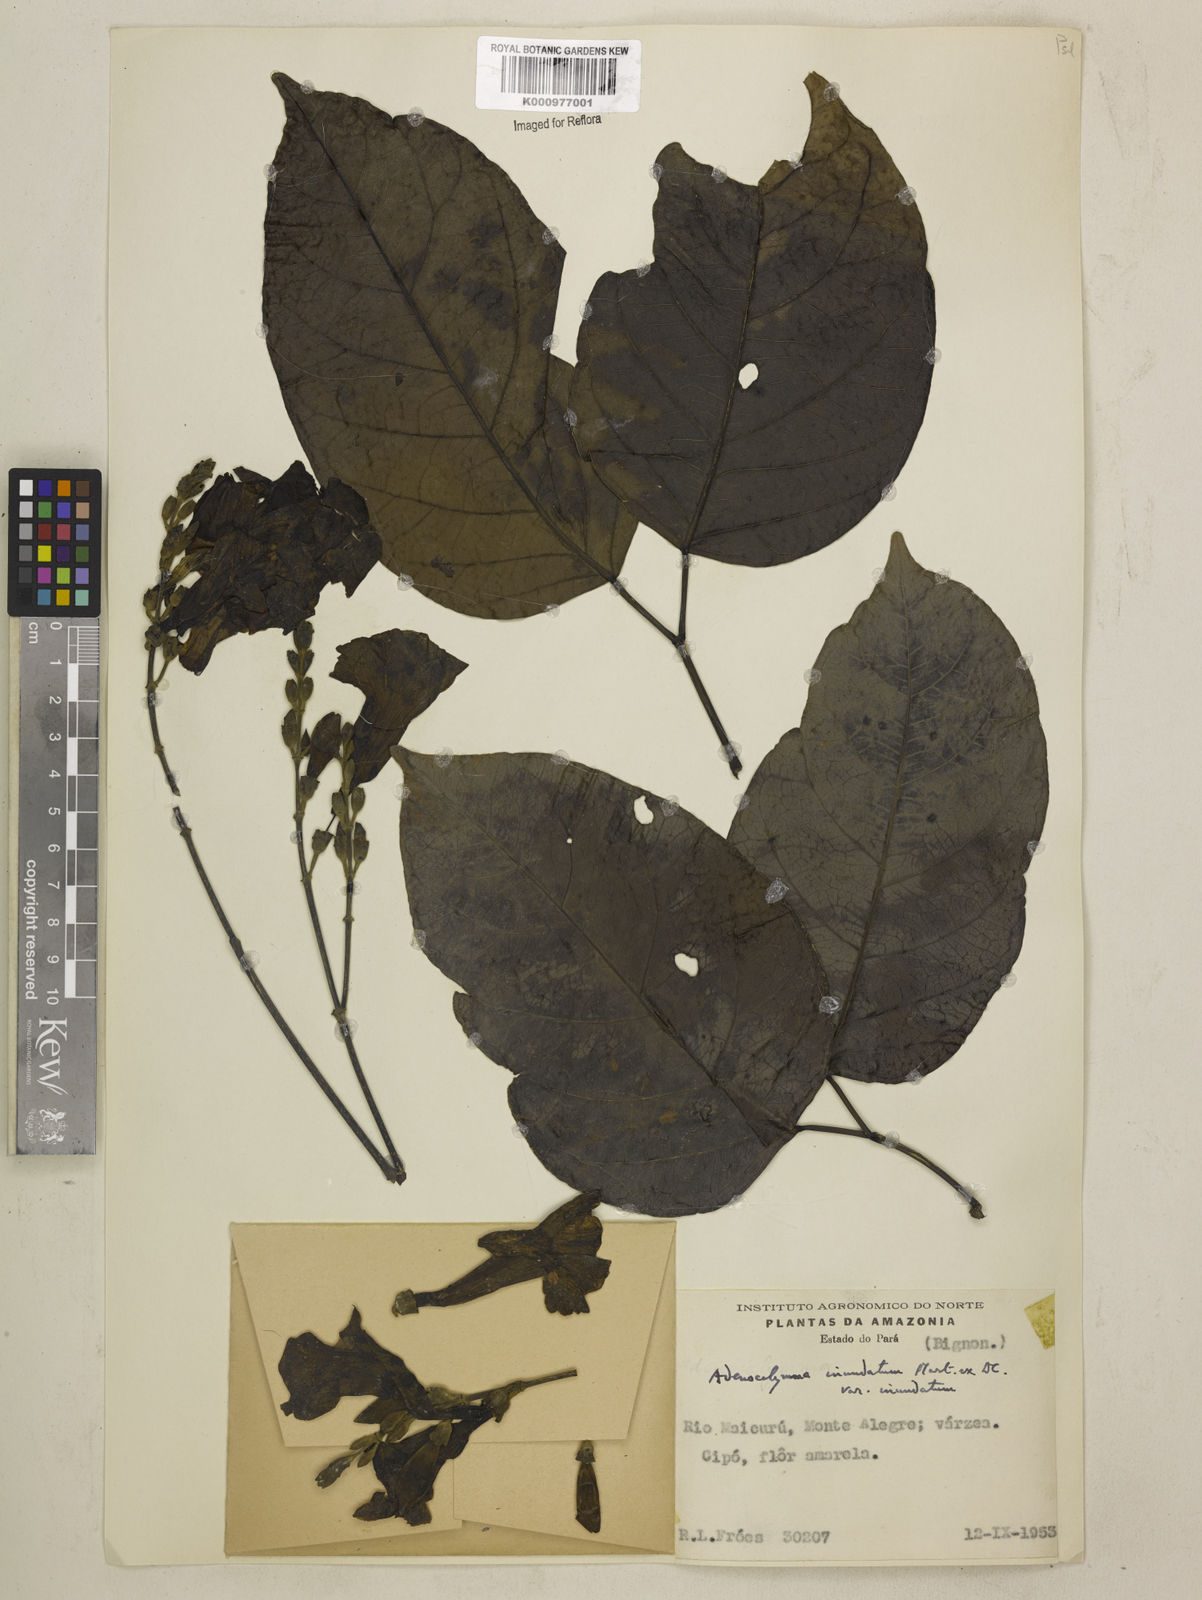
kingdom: Plantae
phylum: Tracheophyta
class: Magnoliopsida
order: Lamiales
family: Bignoniaceae
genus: Adenocalymma
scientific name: Adenocalymma inundatum
